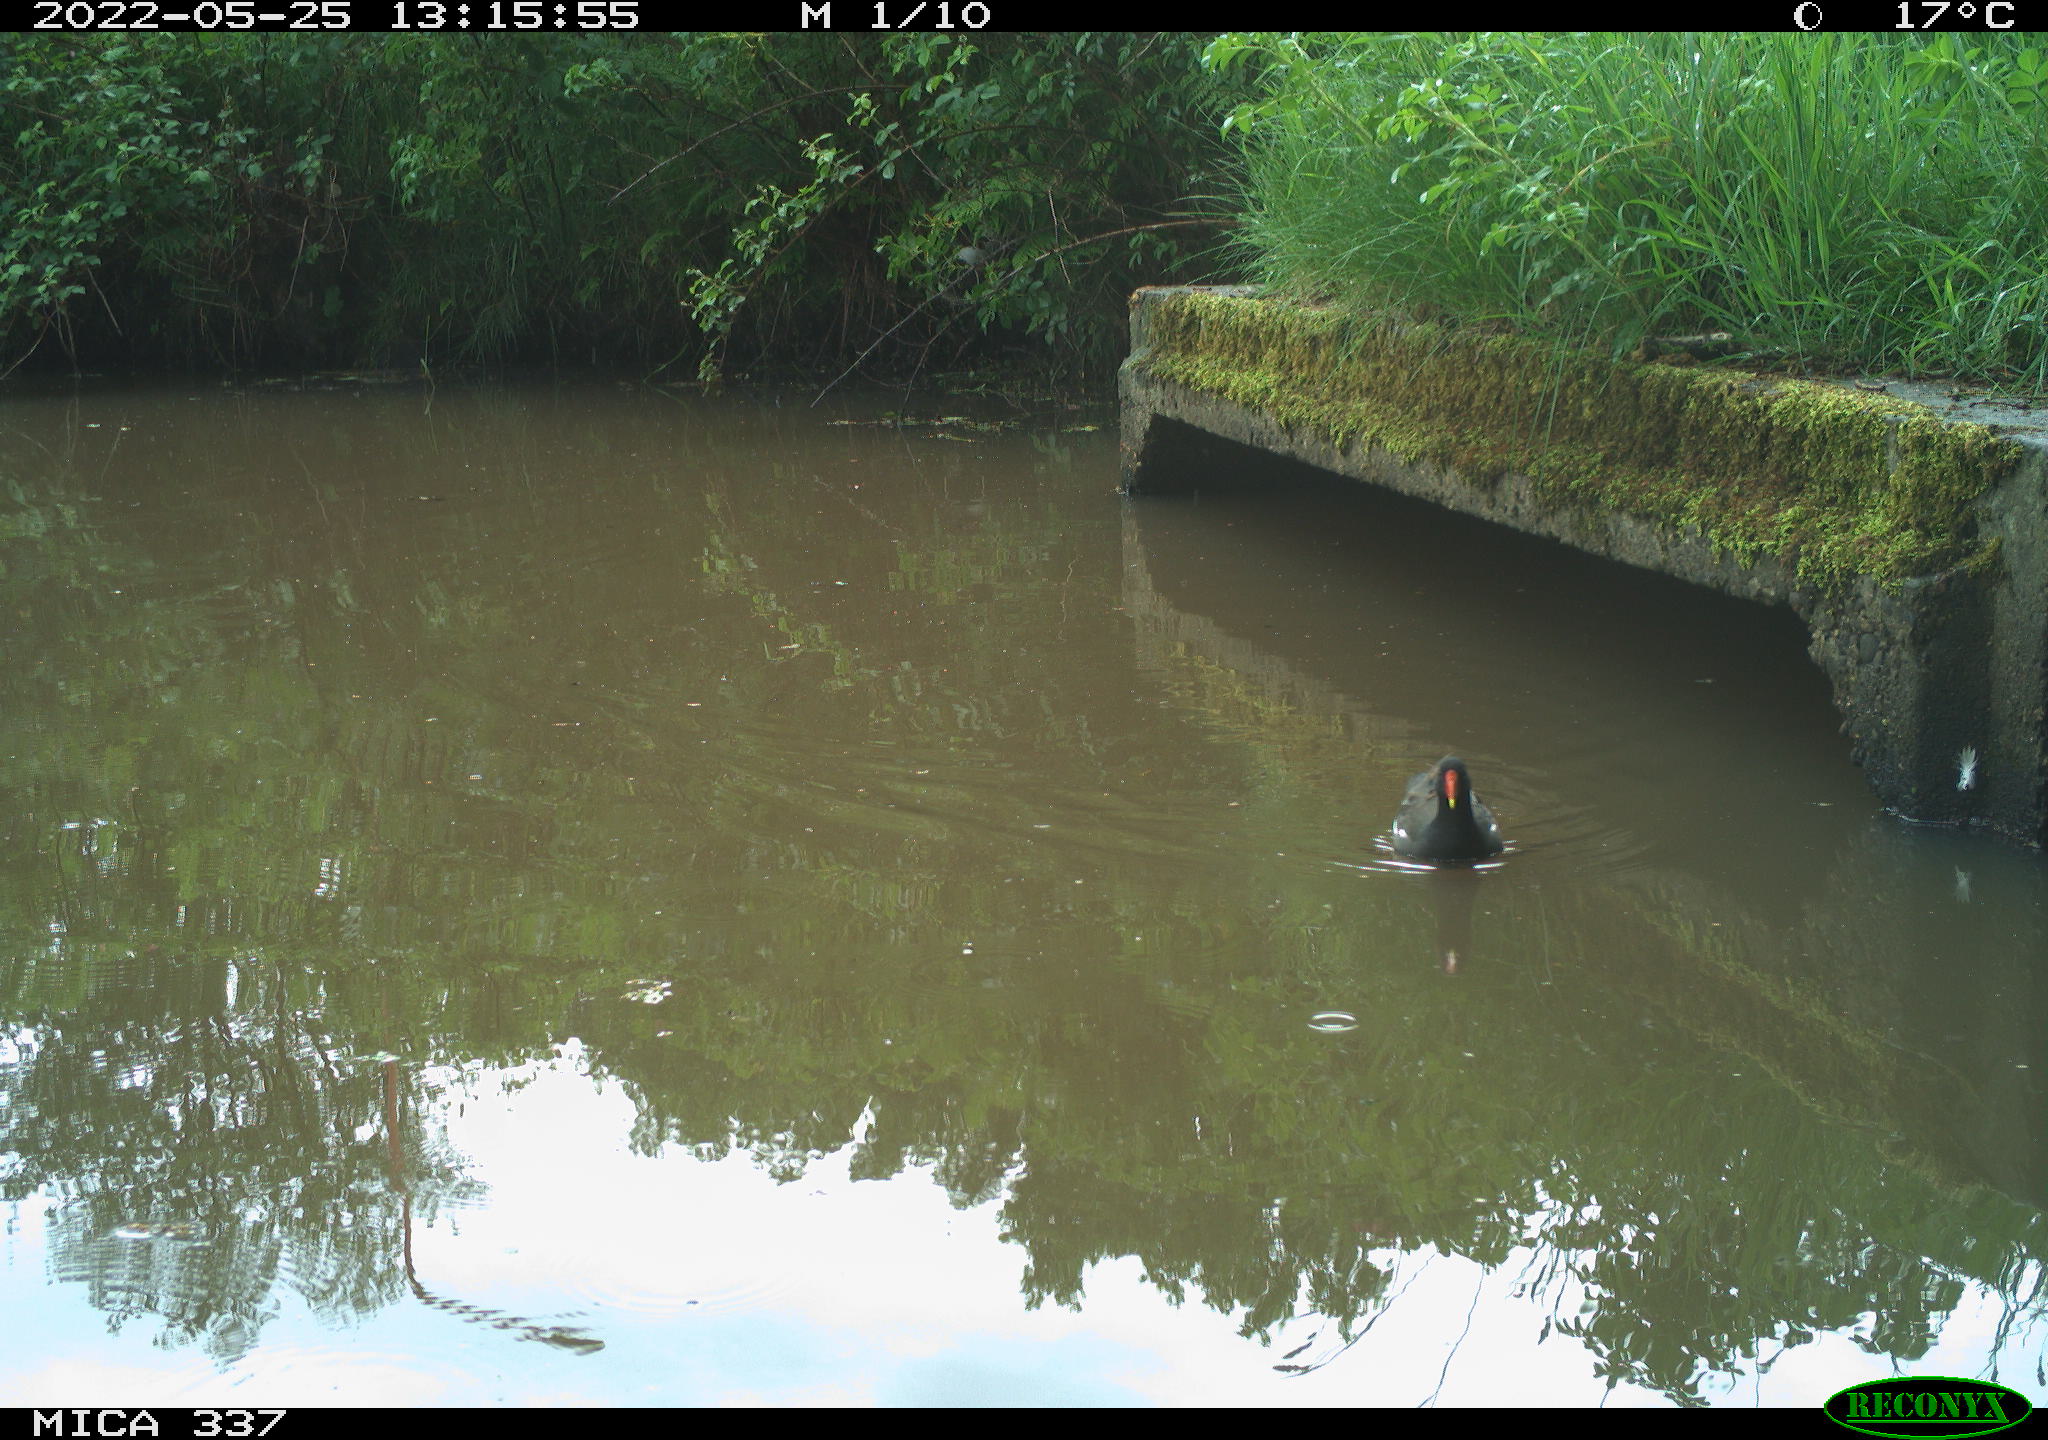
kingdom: Animalia
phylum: Chordata
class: Aves
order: Gruiformes
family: Rallidae
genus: Gallinula
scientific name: Gallinula chloropus
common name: Common moorhen
